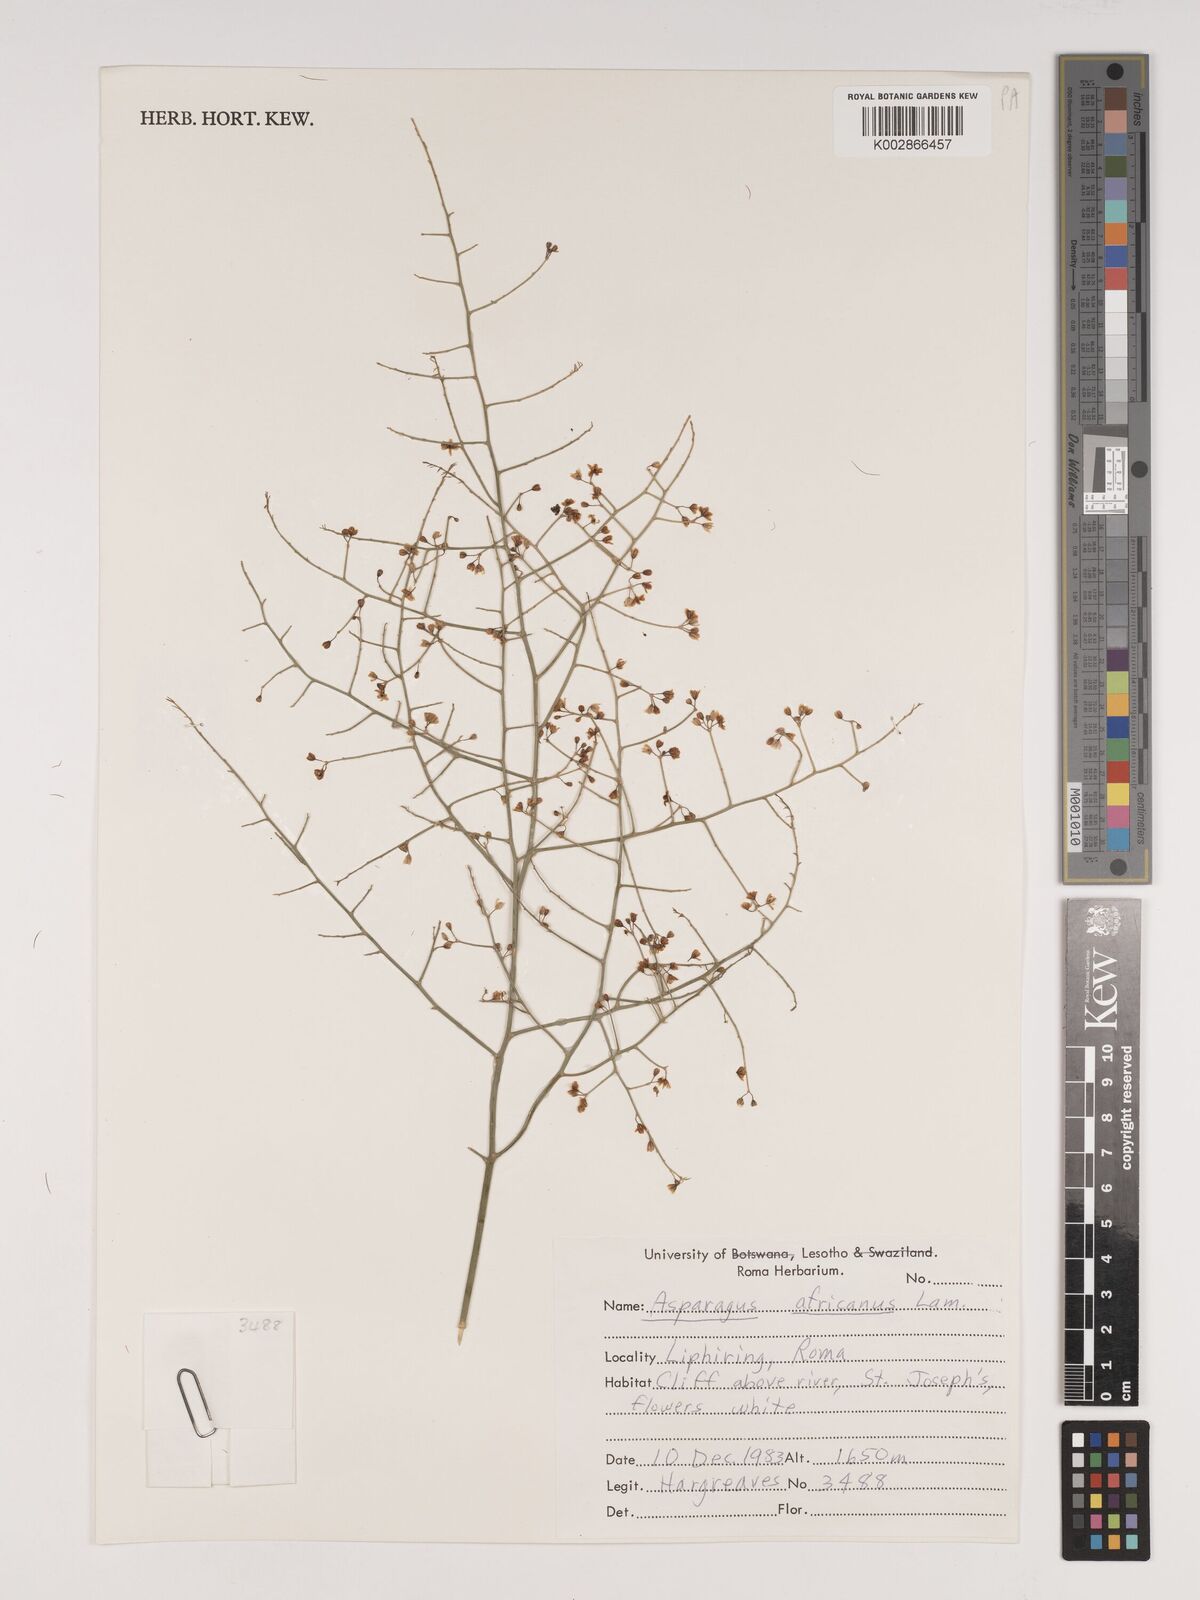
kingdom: Plantae
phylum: Tracheophyta
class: Liliopsida
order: Asparagales
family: Asparagaceae
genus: Asparagus
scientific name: Asparagus africanus
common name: Asparagus-fern
